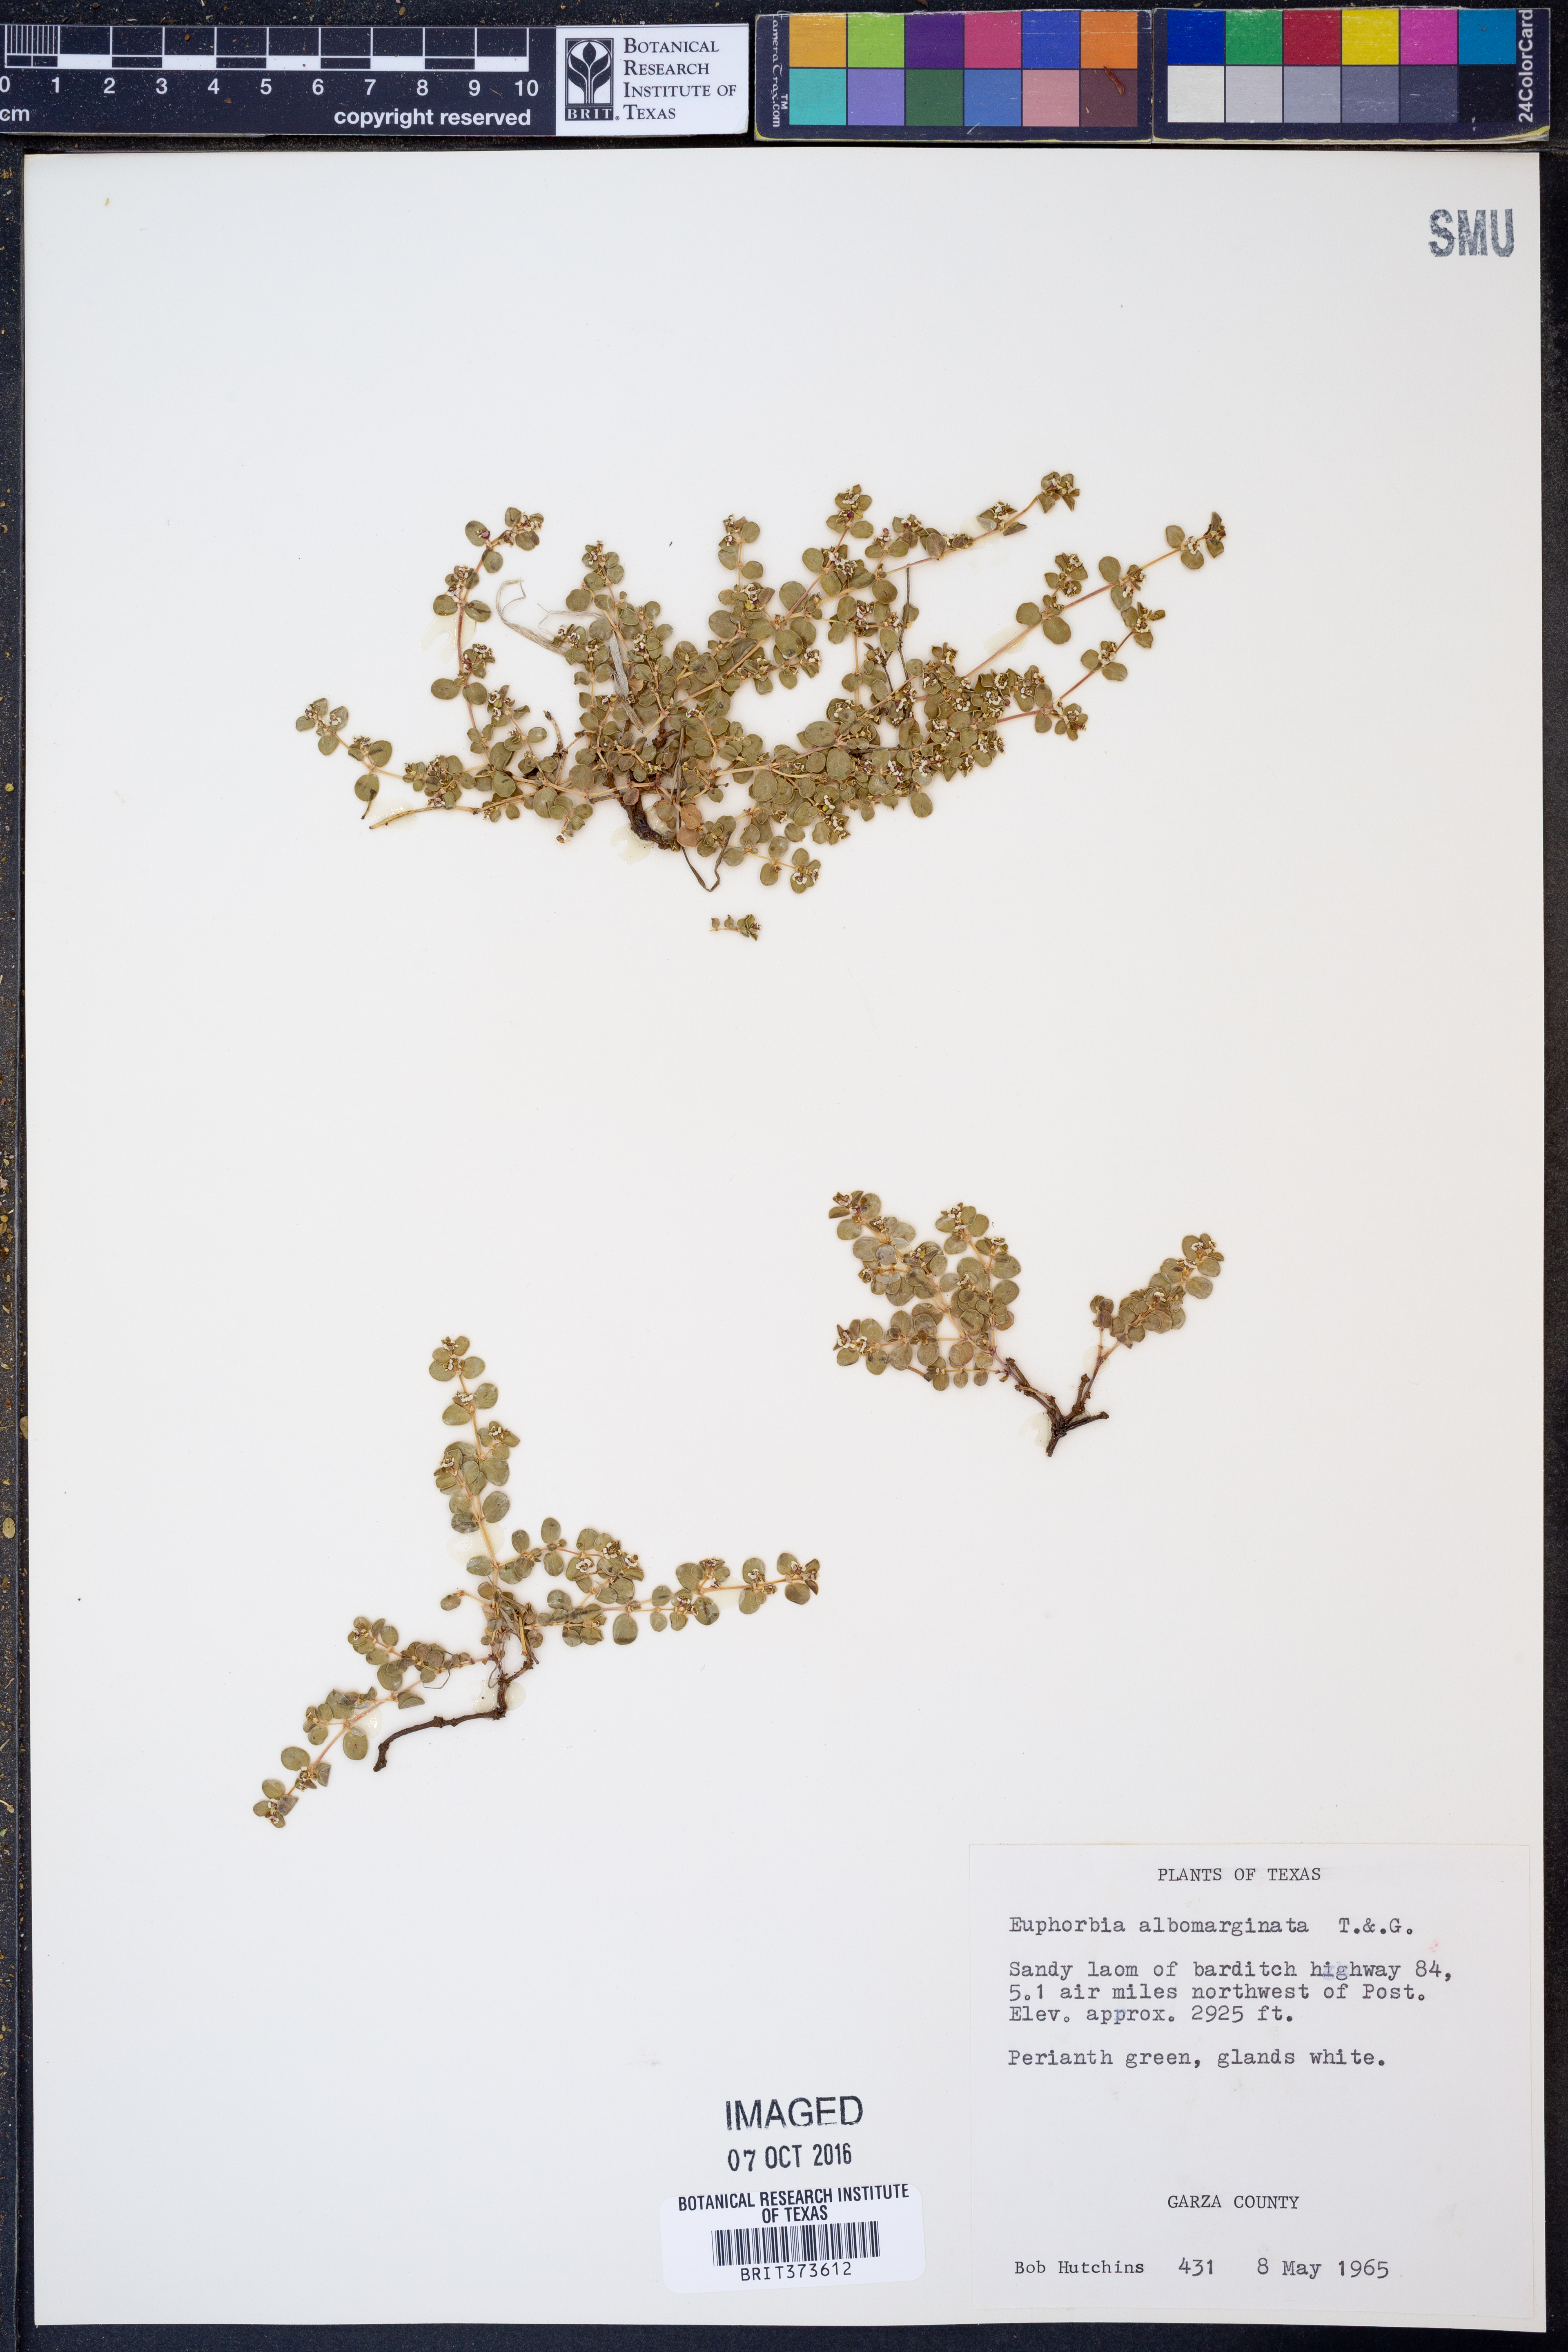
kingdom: Plantae
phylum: Tracheophyta
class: Magnoliopsida
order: Malpighiales
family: Euphorbiaceae
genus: Euphorbia
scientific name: Euphorbia albomarginata
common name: Whitemargin sandmat
